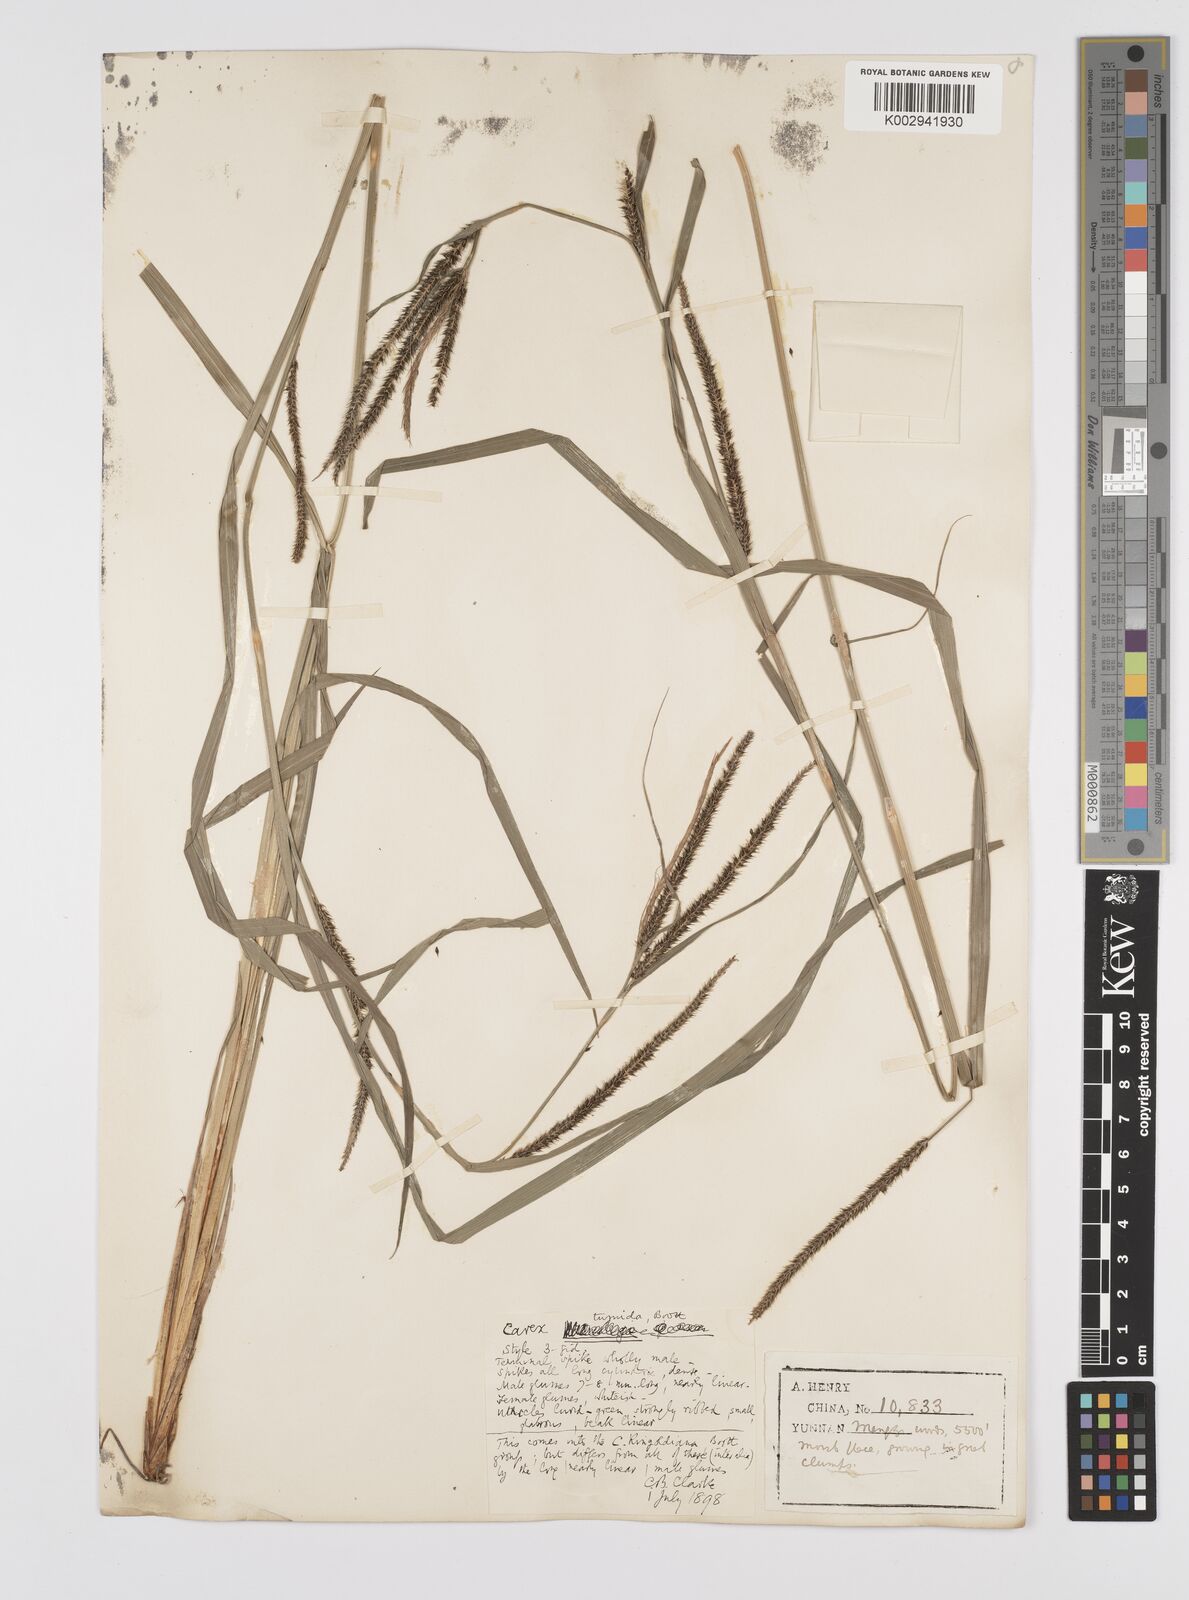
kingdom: Plantae
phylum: Tracheophyta
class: Liliopsida
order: Poales
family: Cyperaceae
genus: Carex
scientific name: Carex tumida
